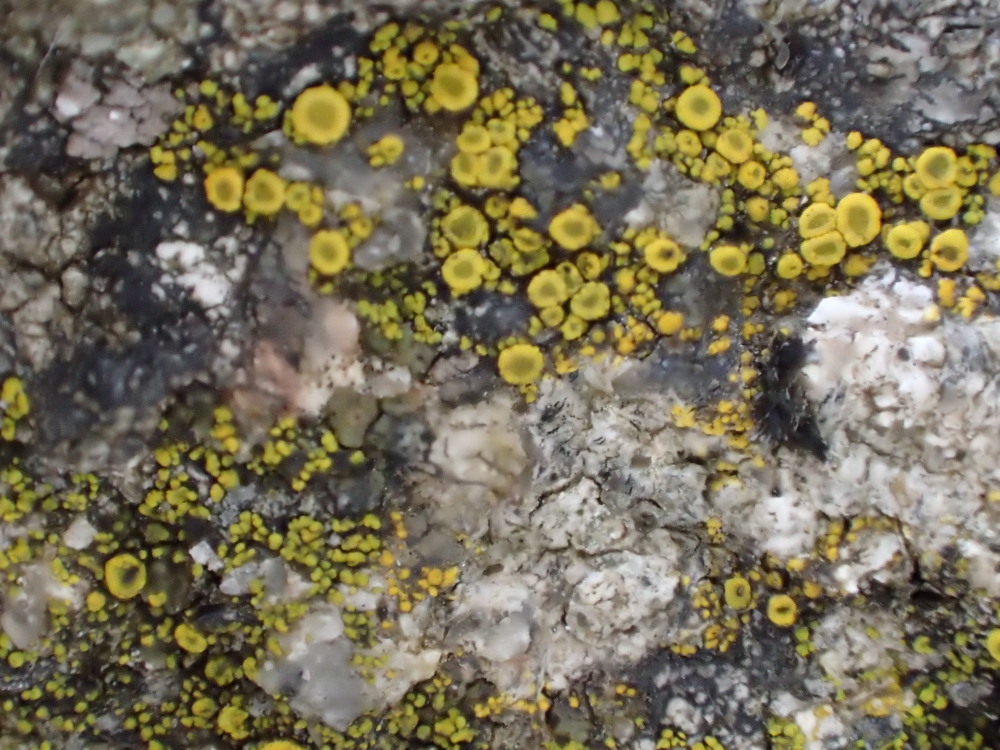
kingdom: Fungi
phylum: Ascomycota
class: Candelariomycetes
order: Candelariales
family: Candelariaceae
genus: Candelariella
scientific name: Candelariella vitellina
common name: almindelig æggeblommelav
